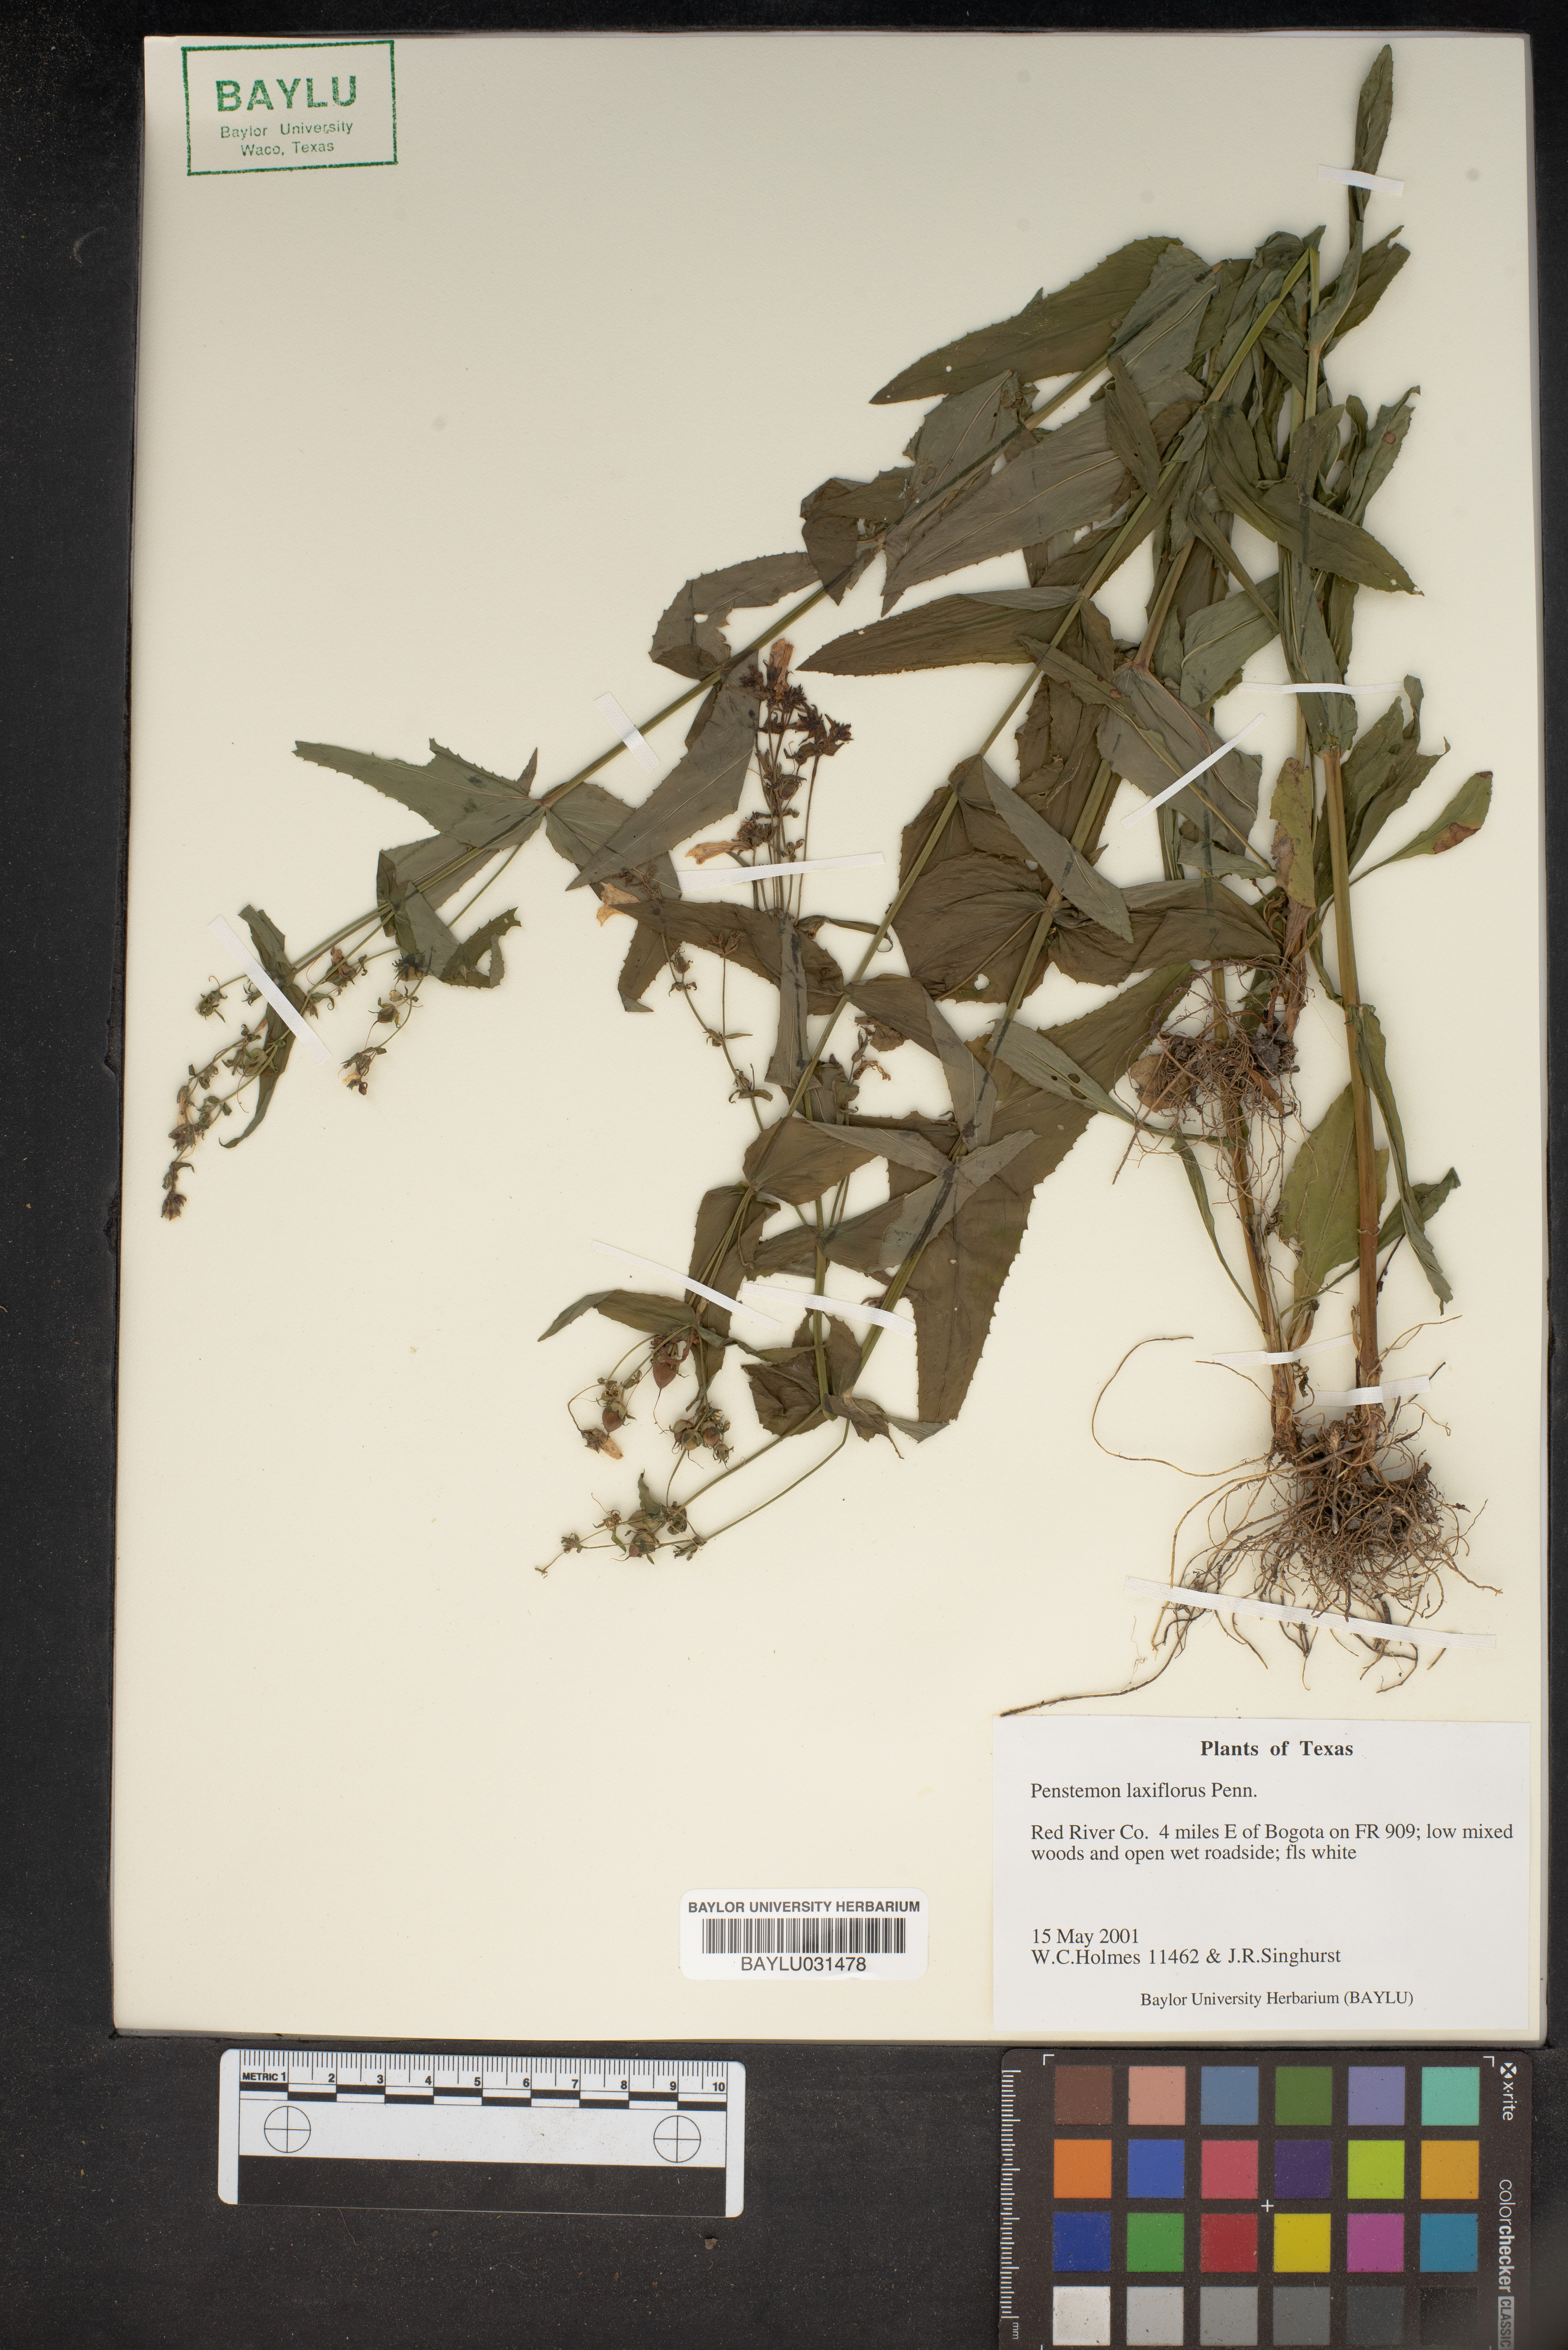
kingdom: Plantae
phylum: Tracheophyta
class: Magnoliopsida
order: Lamiales
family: Plantaginaceae
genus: Penstemon
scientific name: Penstemon laxiflorus
